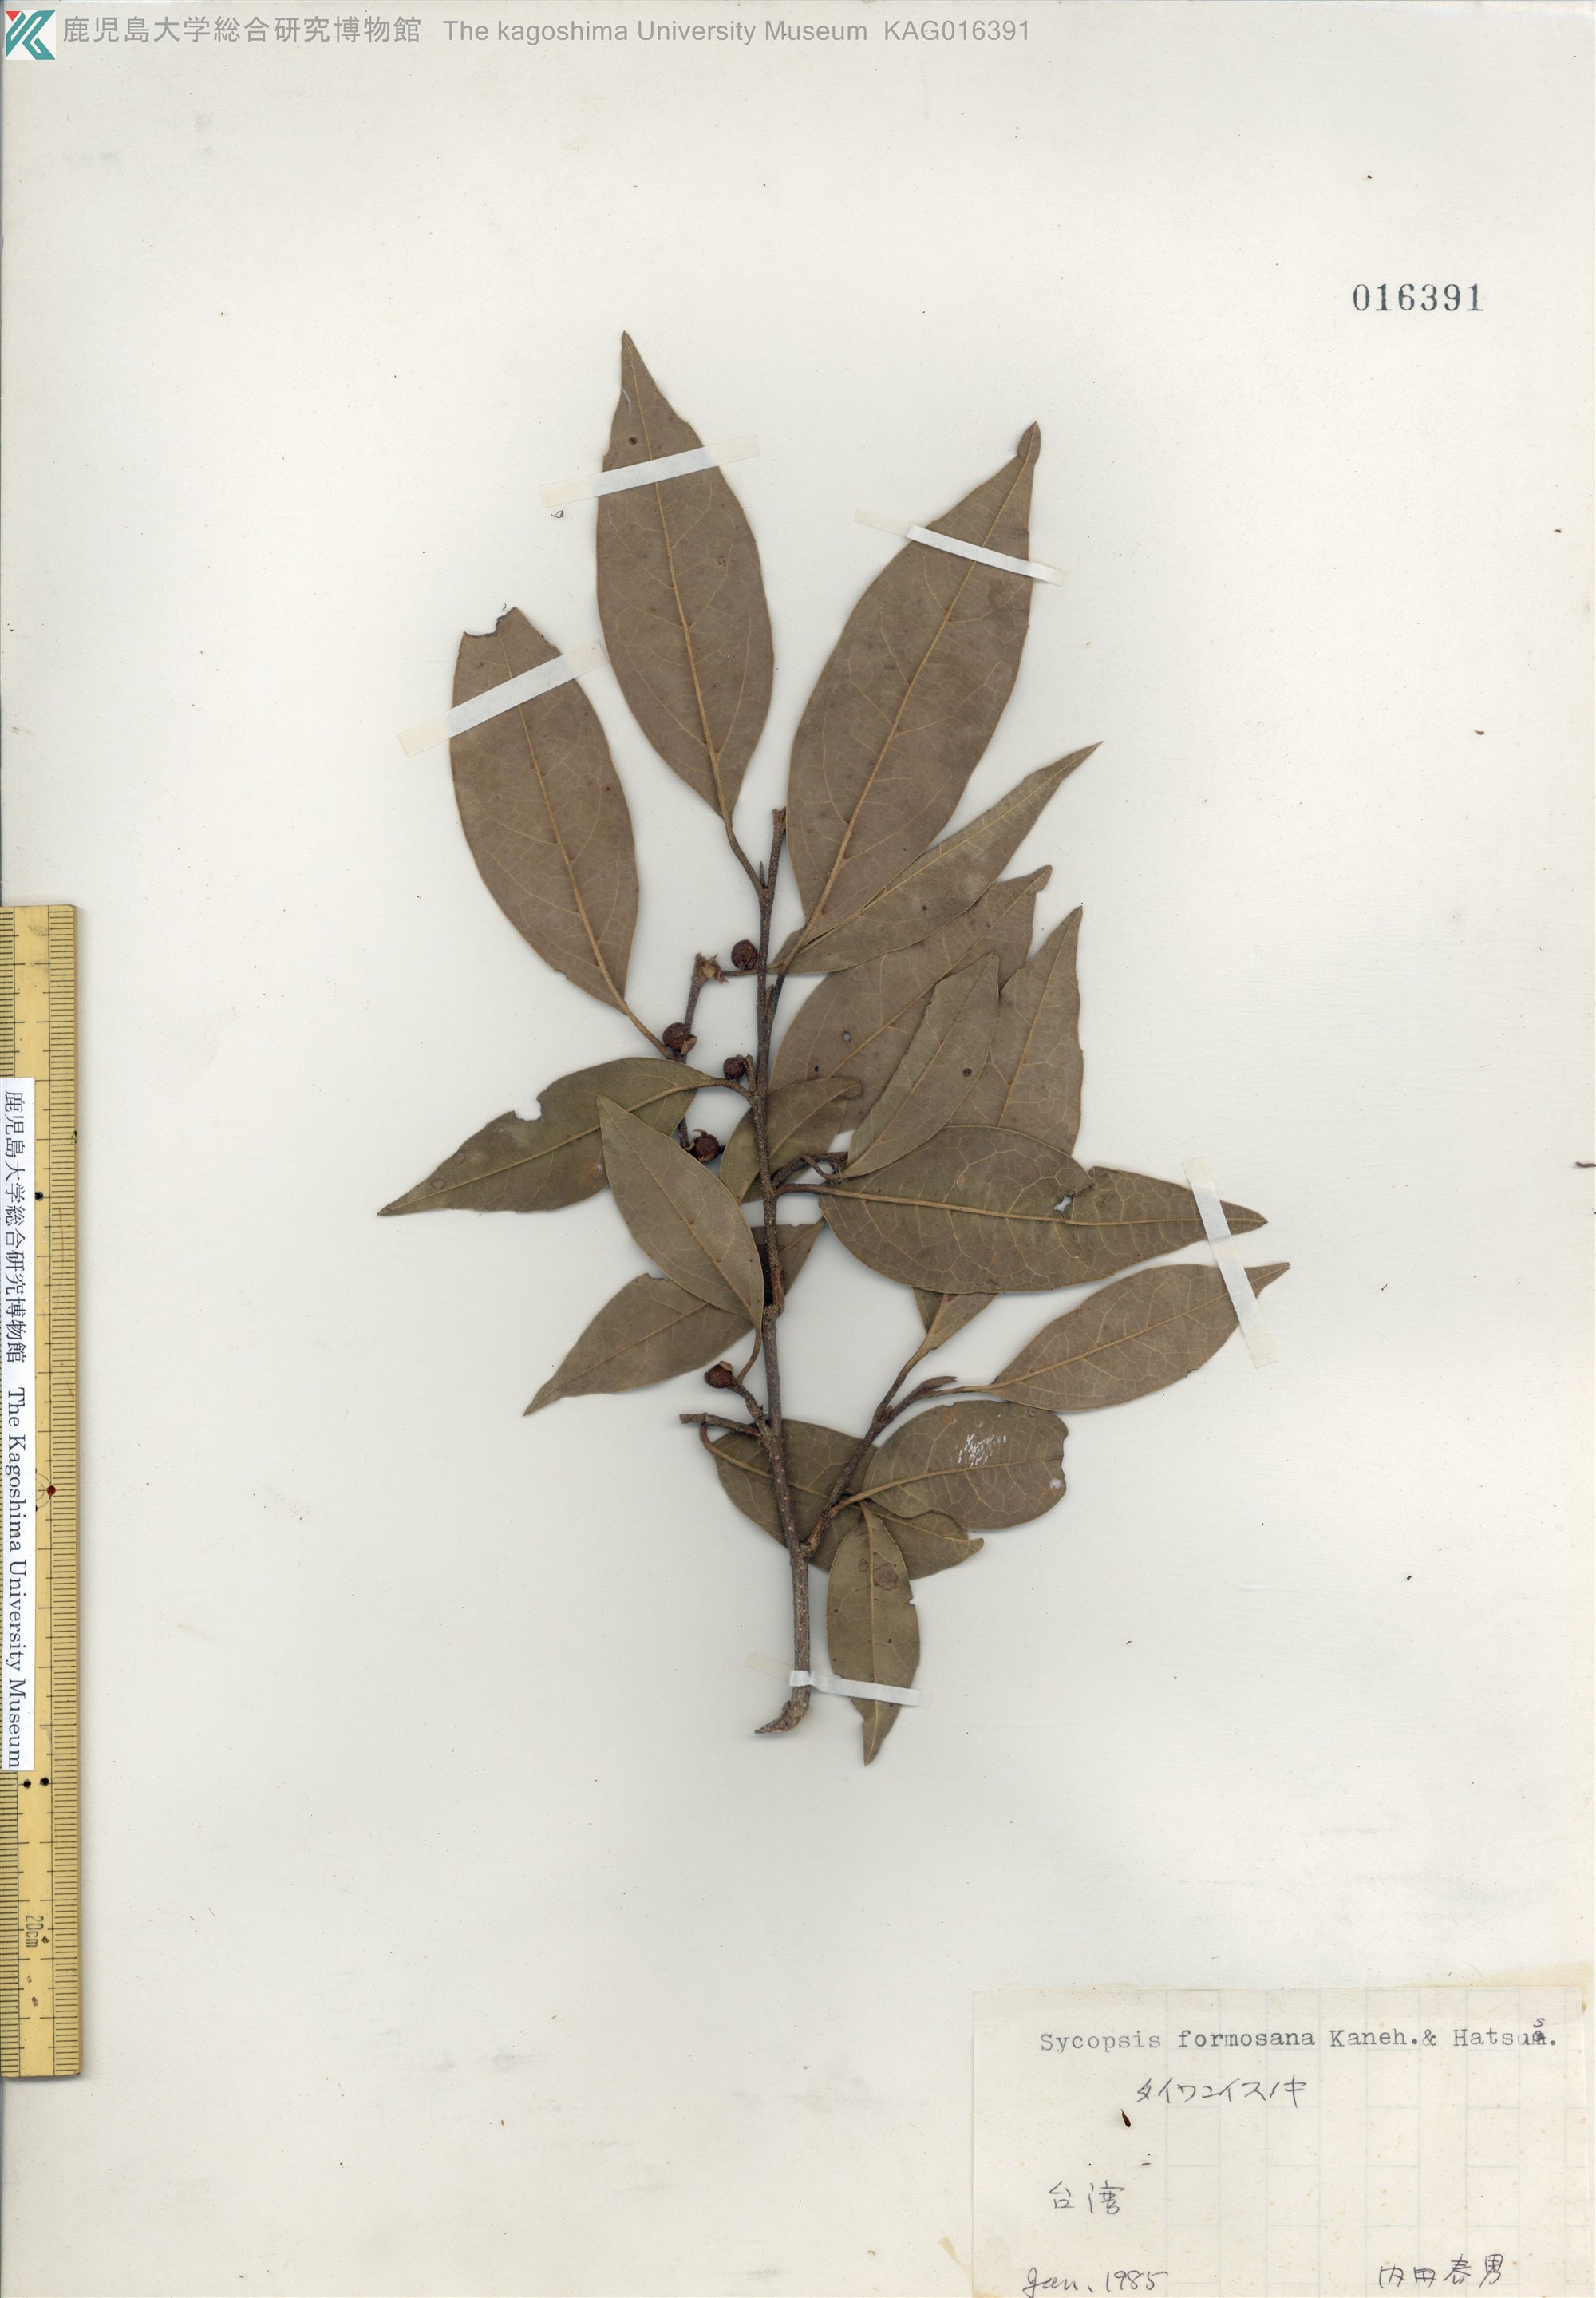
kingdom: Plantae
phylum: Tracheophyta
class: Magnoliopsida
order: Saxifragales
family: Hamamelidaceae
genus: Sycopsis
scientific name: Sycopsis sinensis
